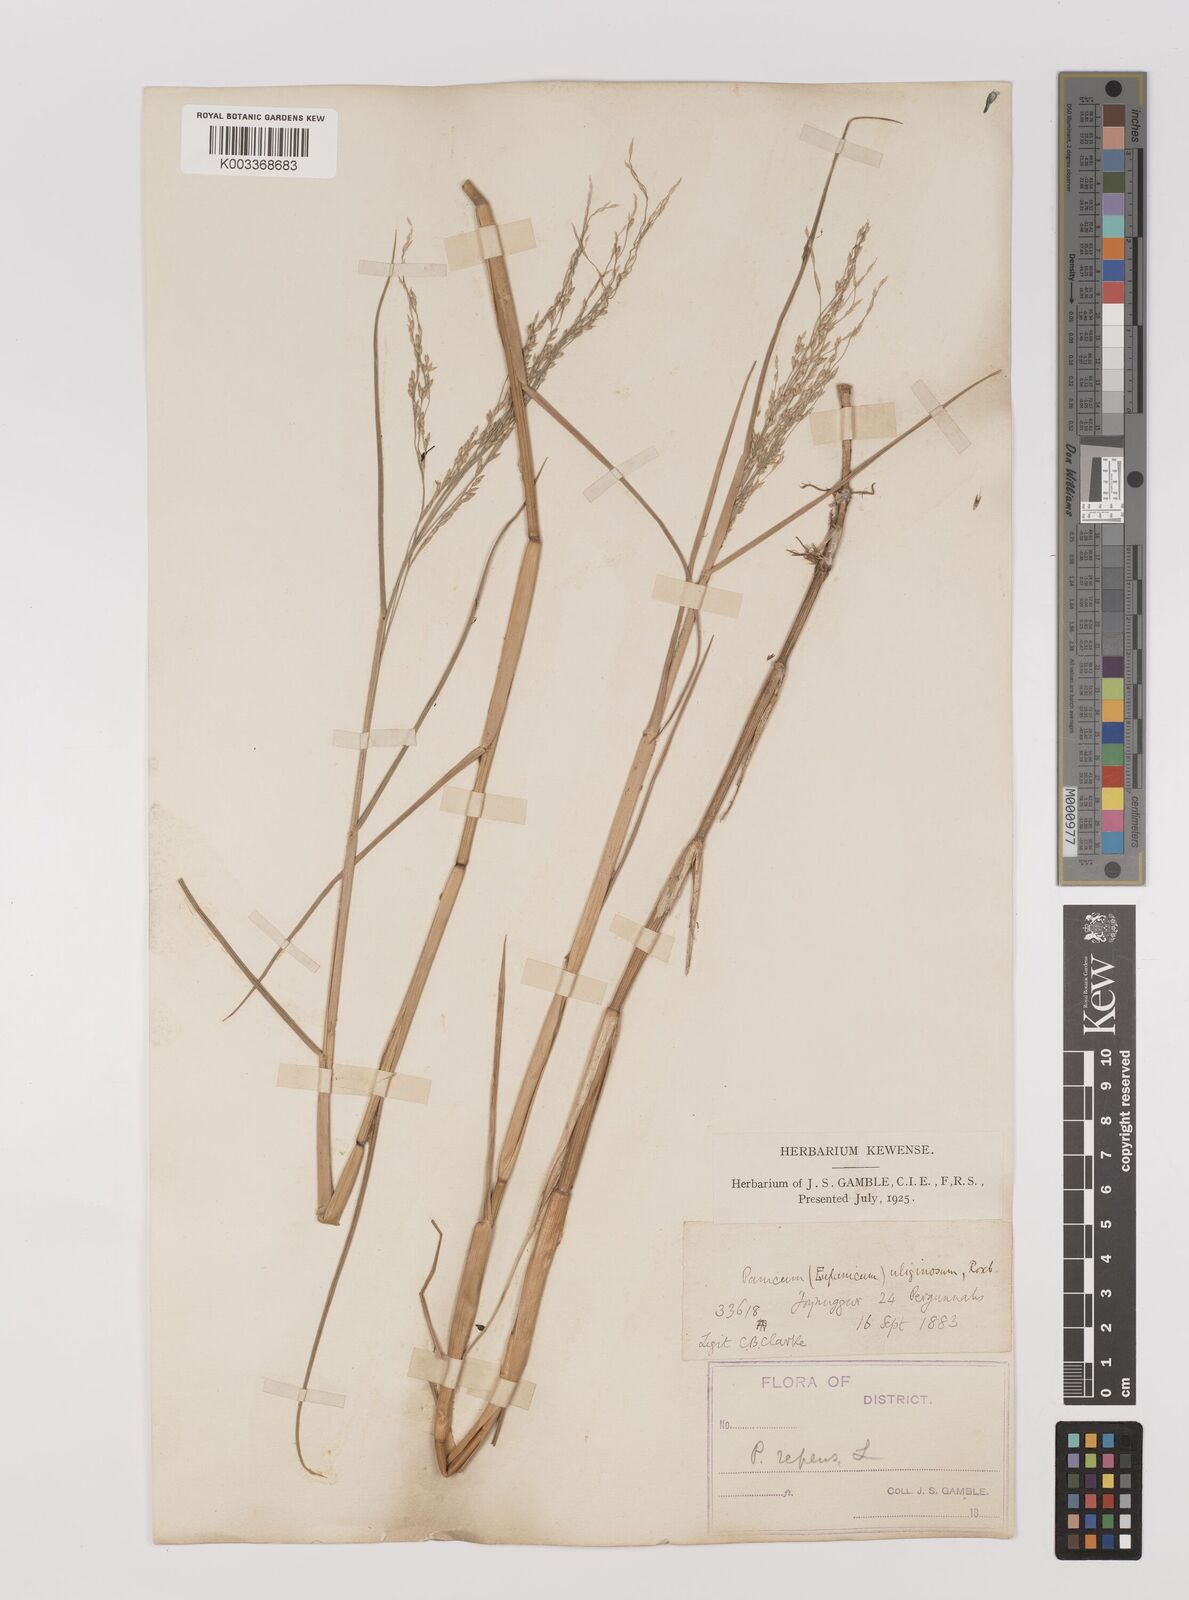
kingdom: Plantae
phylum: Tracheophyta
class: Liliopsida
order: Poales
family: Poaceae
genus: Panicum
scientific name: Panicum repens
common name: Torpedo grass
